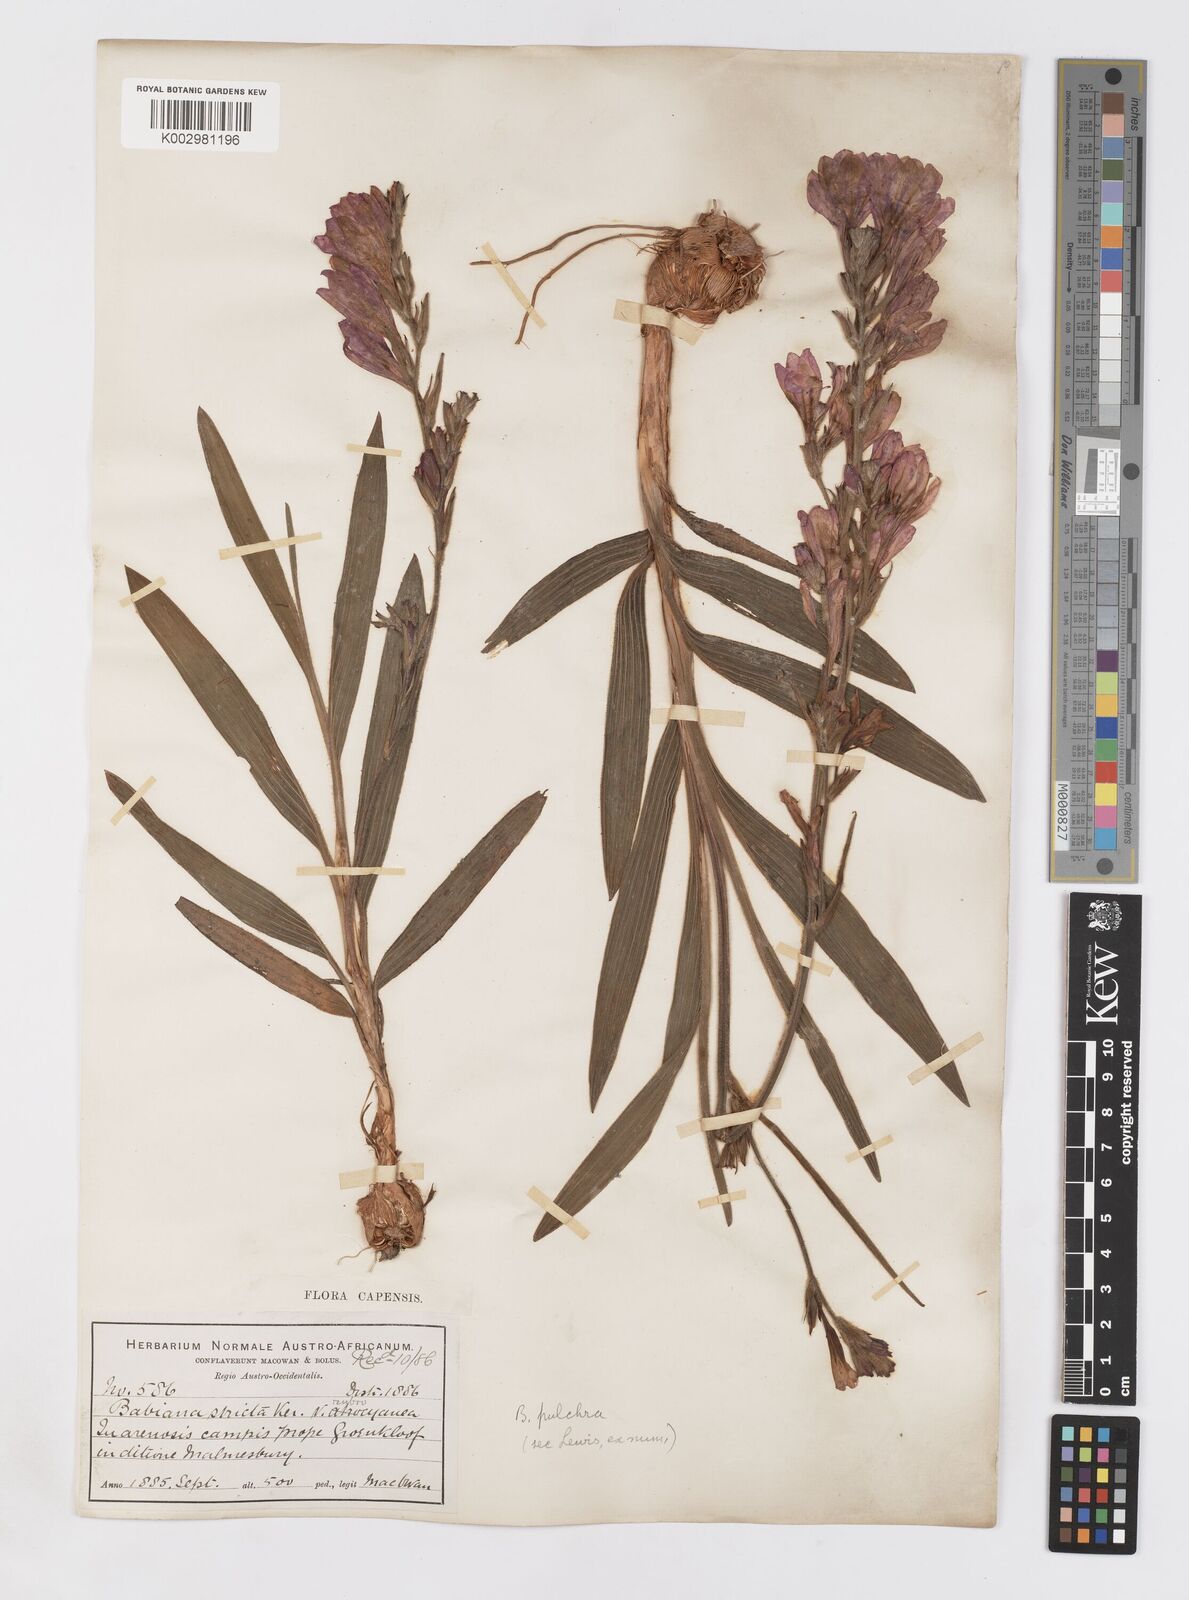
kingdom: Plantae
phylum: Tracheophyta
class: Liliopsida
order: Asparagales
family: Iridaceae
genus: Babiana
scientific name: Babiana angustifolia
